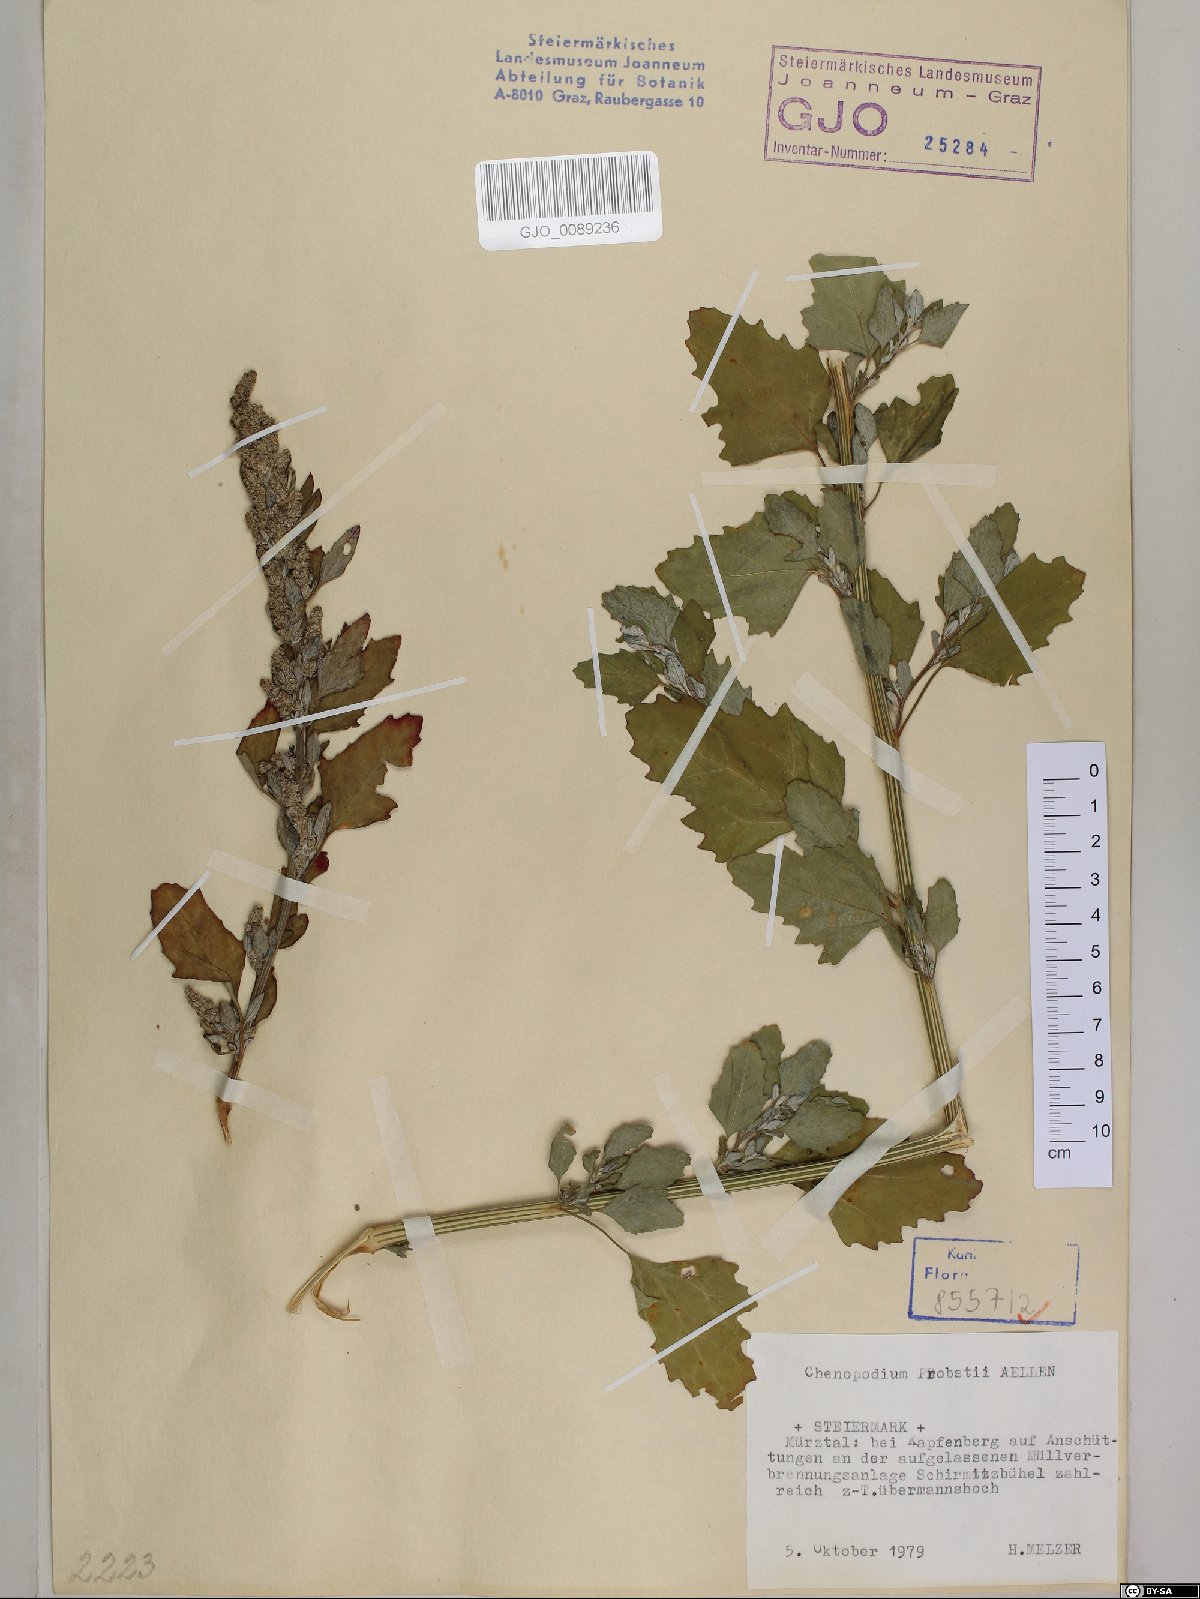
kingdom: Plantae
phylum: Tracheophyta
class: Magnoliopsida
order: Caryophyllales
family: Amaranthaceae
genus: Chenopodium
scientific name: Chenopodium probstii
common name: Probst's goosefoot
